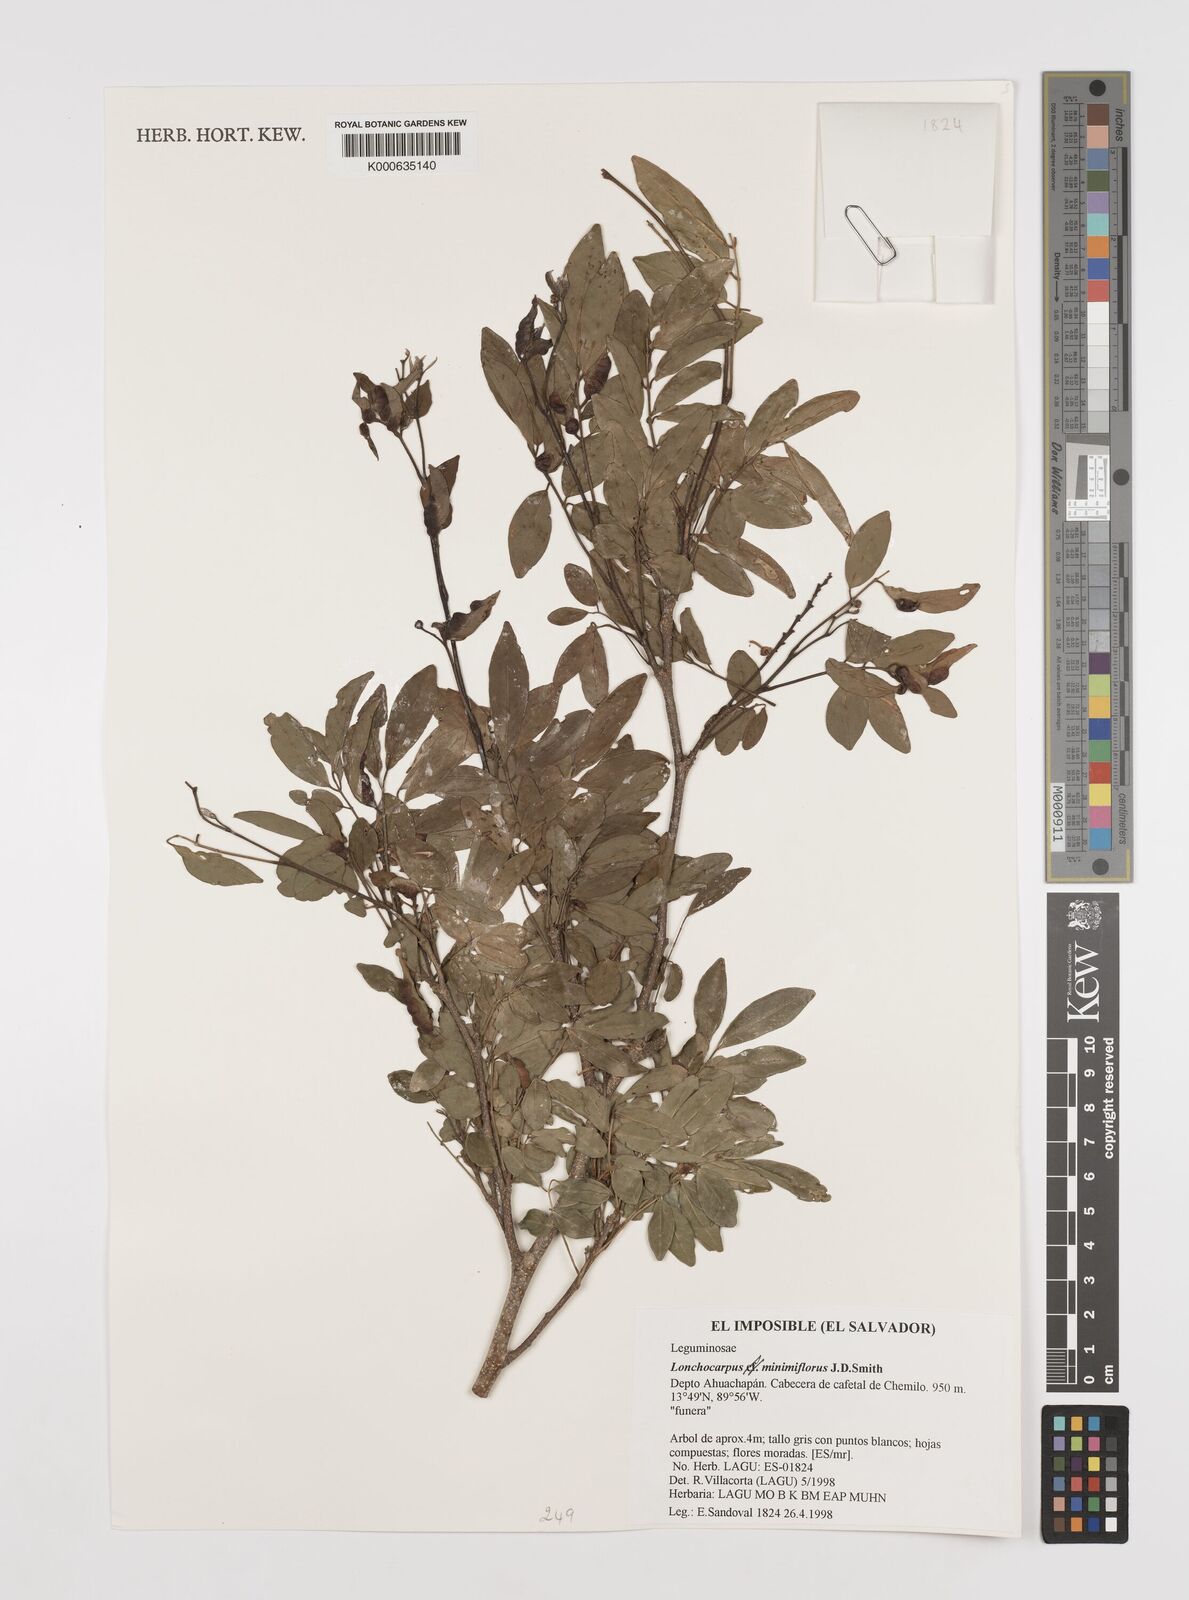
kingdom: Plantae
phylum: Tracheophyta
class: Magnoliopsida
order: Fabales
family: Fabaceae
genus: Lonchocarpus
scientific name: Lonchocarpus
